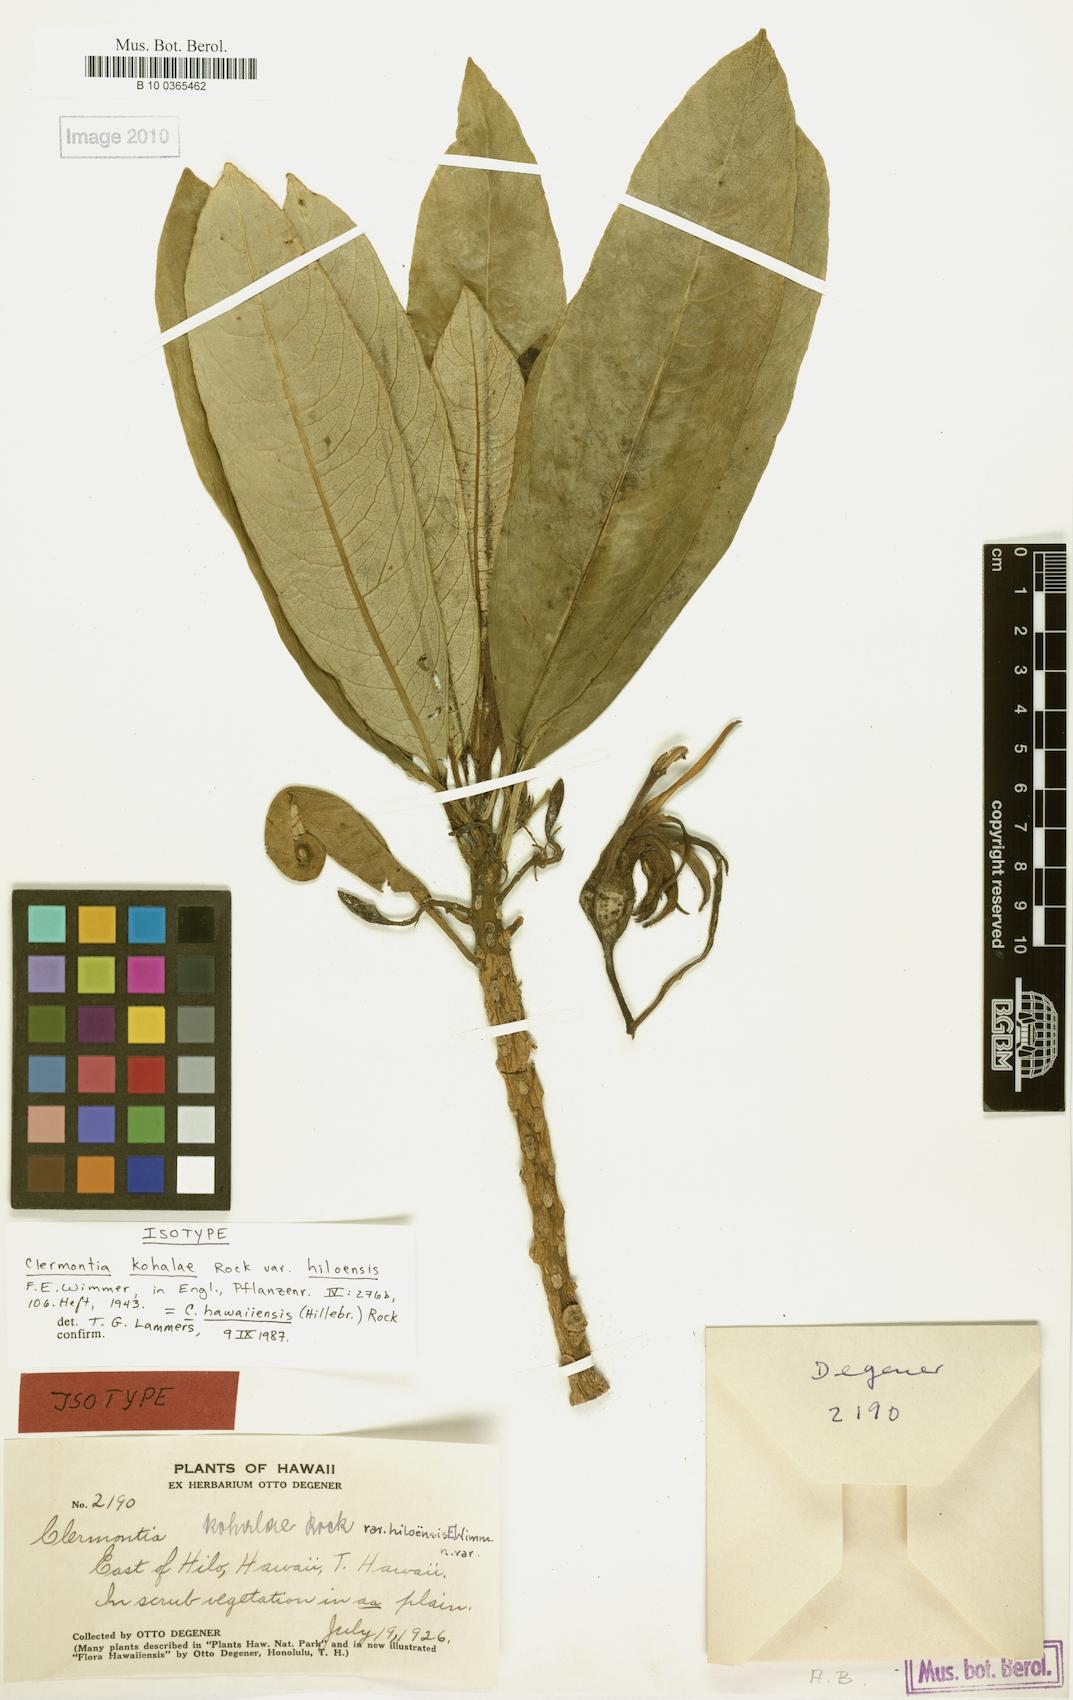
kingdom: Plantae
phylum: Tracheophyta
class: Magnoliopsida
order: Asterales
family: Campanulaceae
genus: Clermontia
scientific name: Clermontia hawaiiensis
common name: Hawaii clermontia
